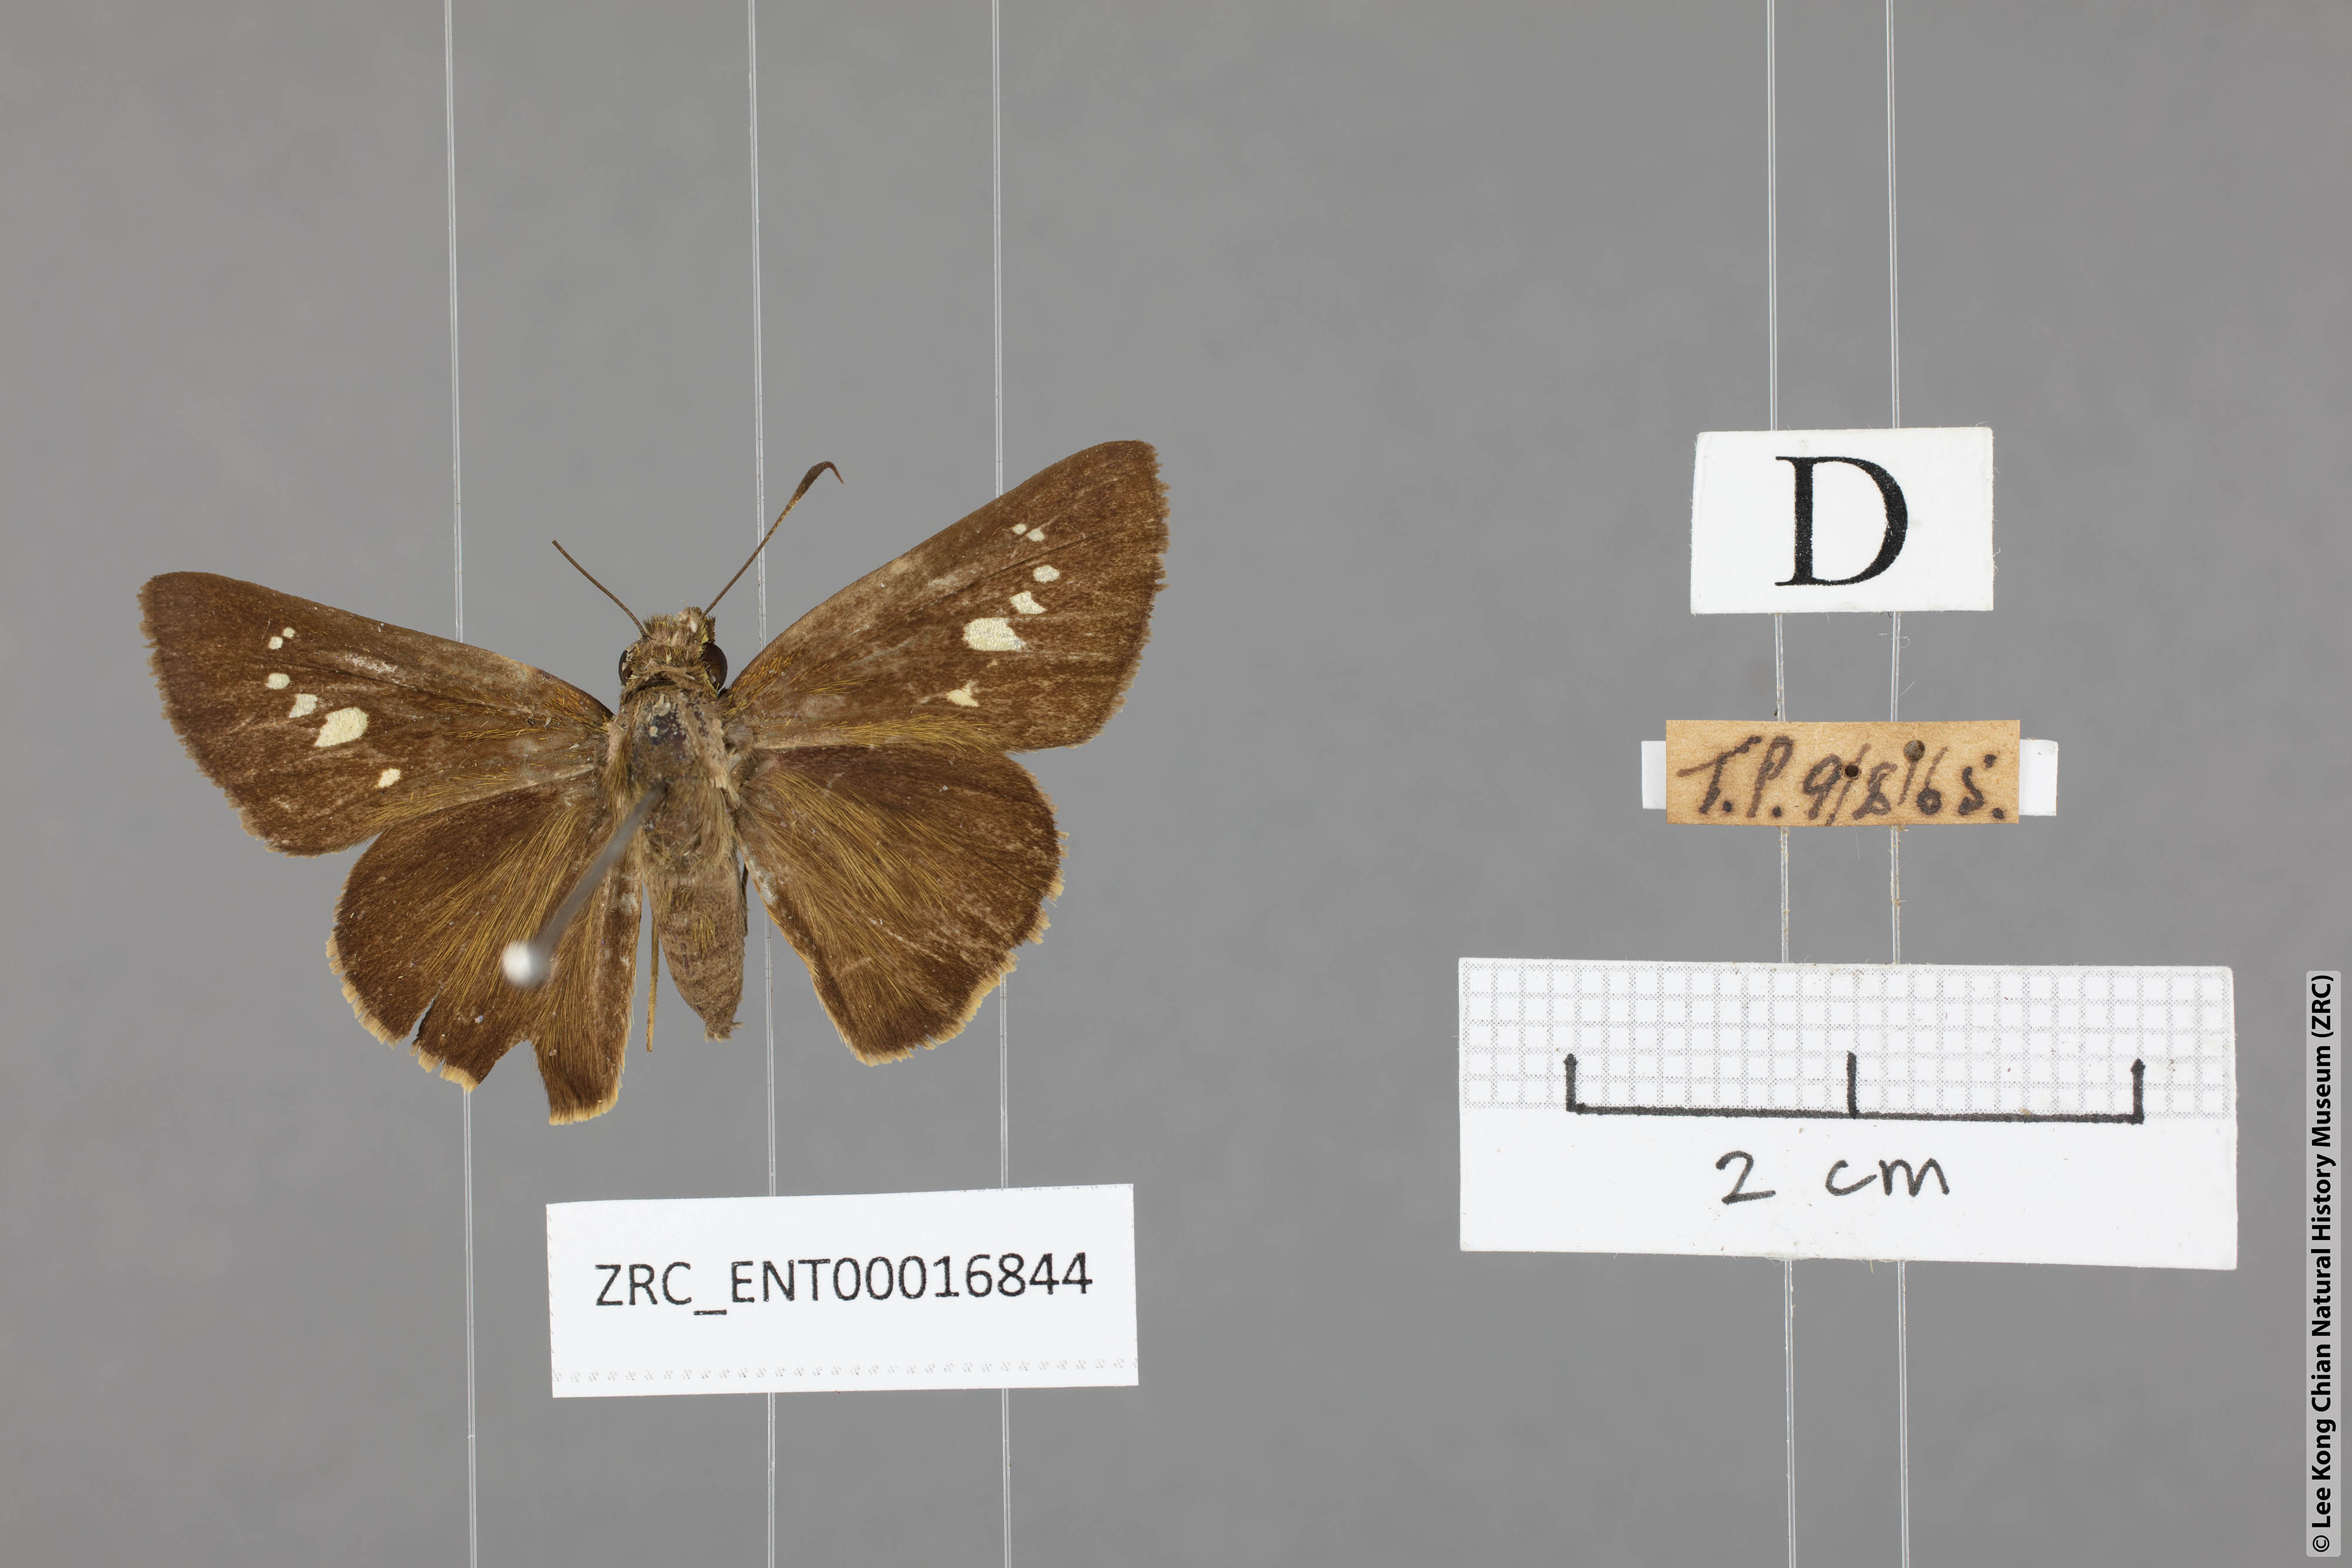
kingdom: Animalia
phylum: Arthropoda
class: Insecta
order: Lepidoptera
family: Hesperiidae
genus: Caltoris
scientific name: Caltoris malaya
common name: Malayan swift
